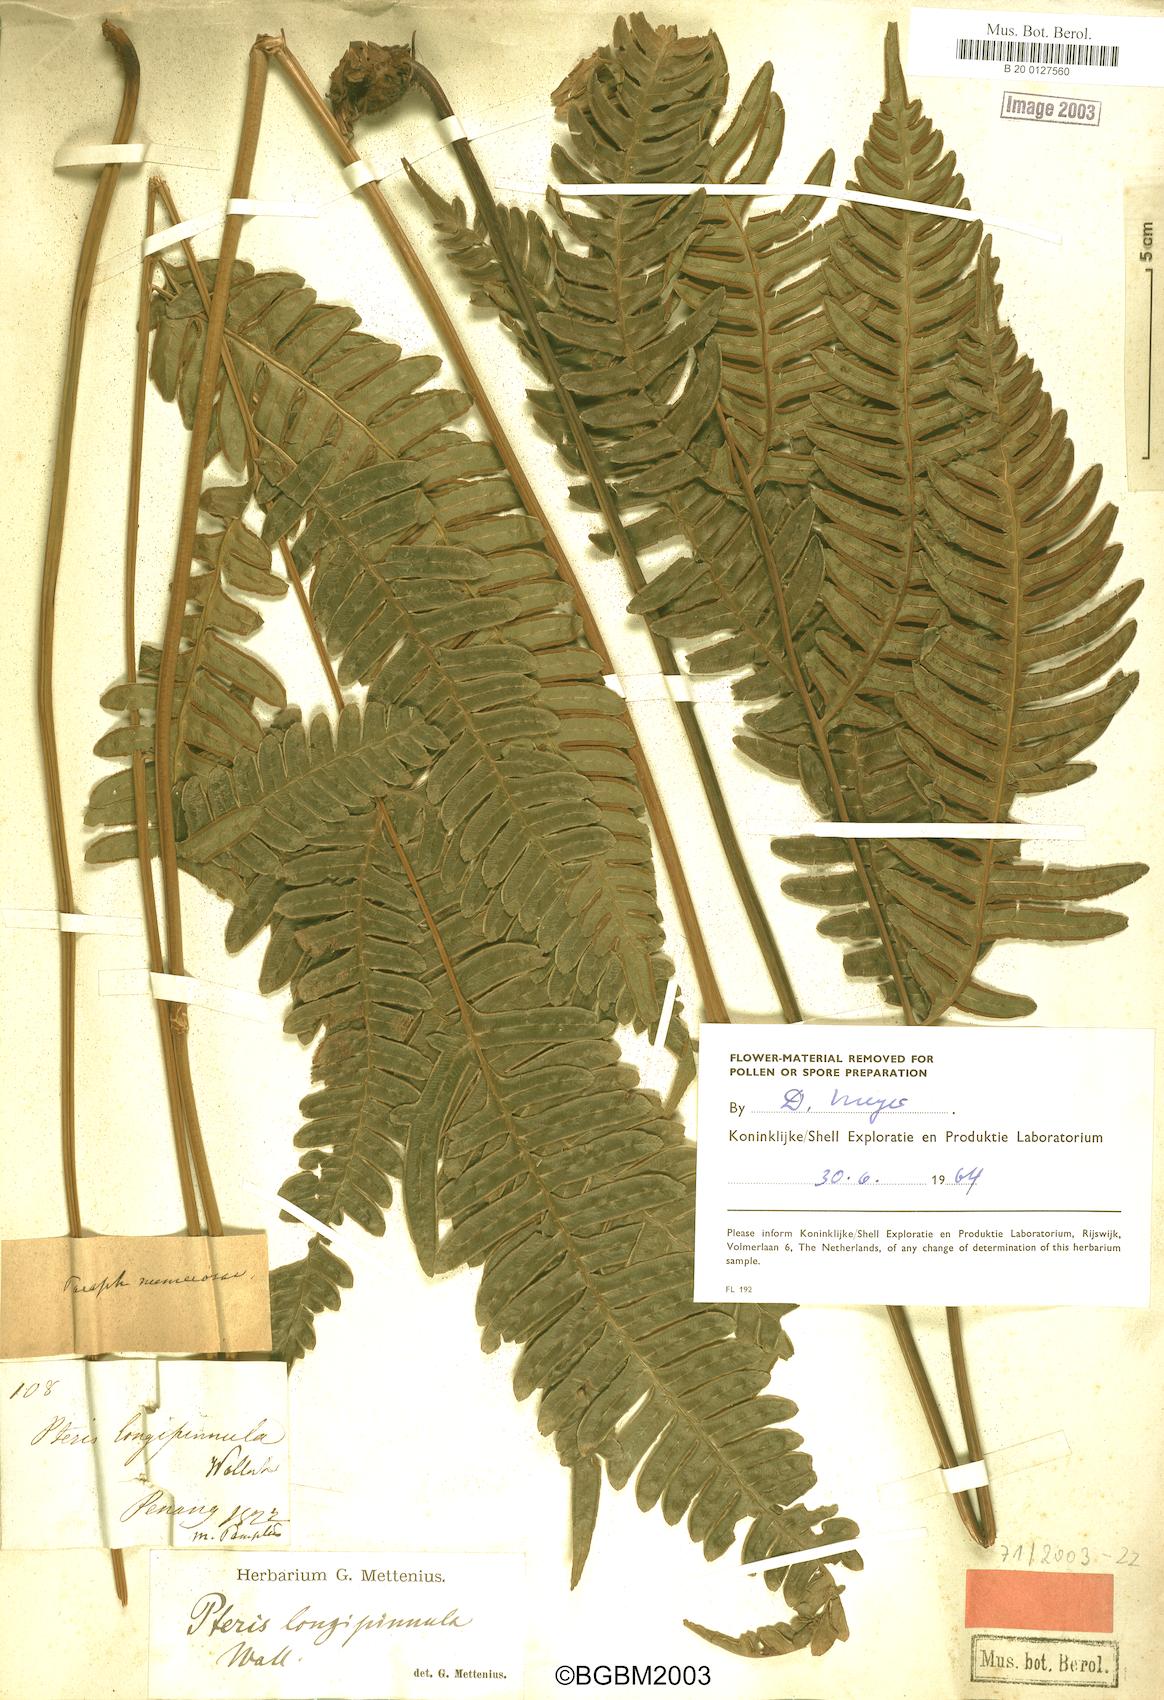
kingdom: Plantae
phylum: Tracheophyta
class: Polypodiopsida
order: Polypodiales
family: Pteridaceae
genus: Pteris
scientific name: Pteris longipinnula
